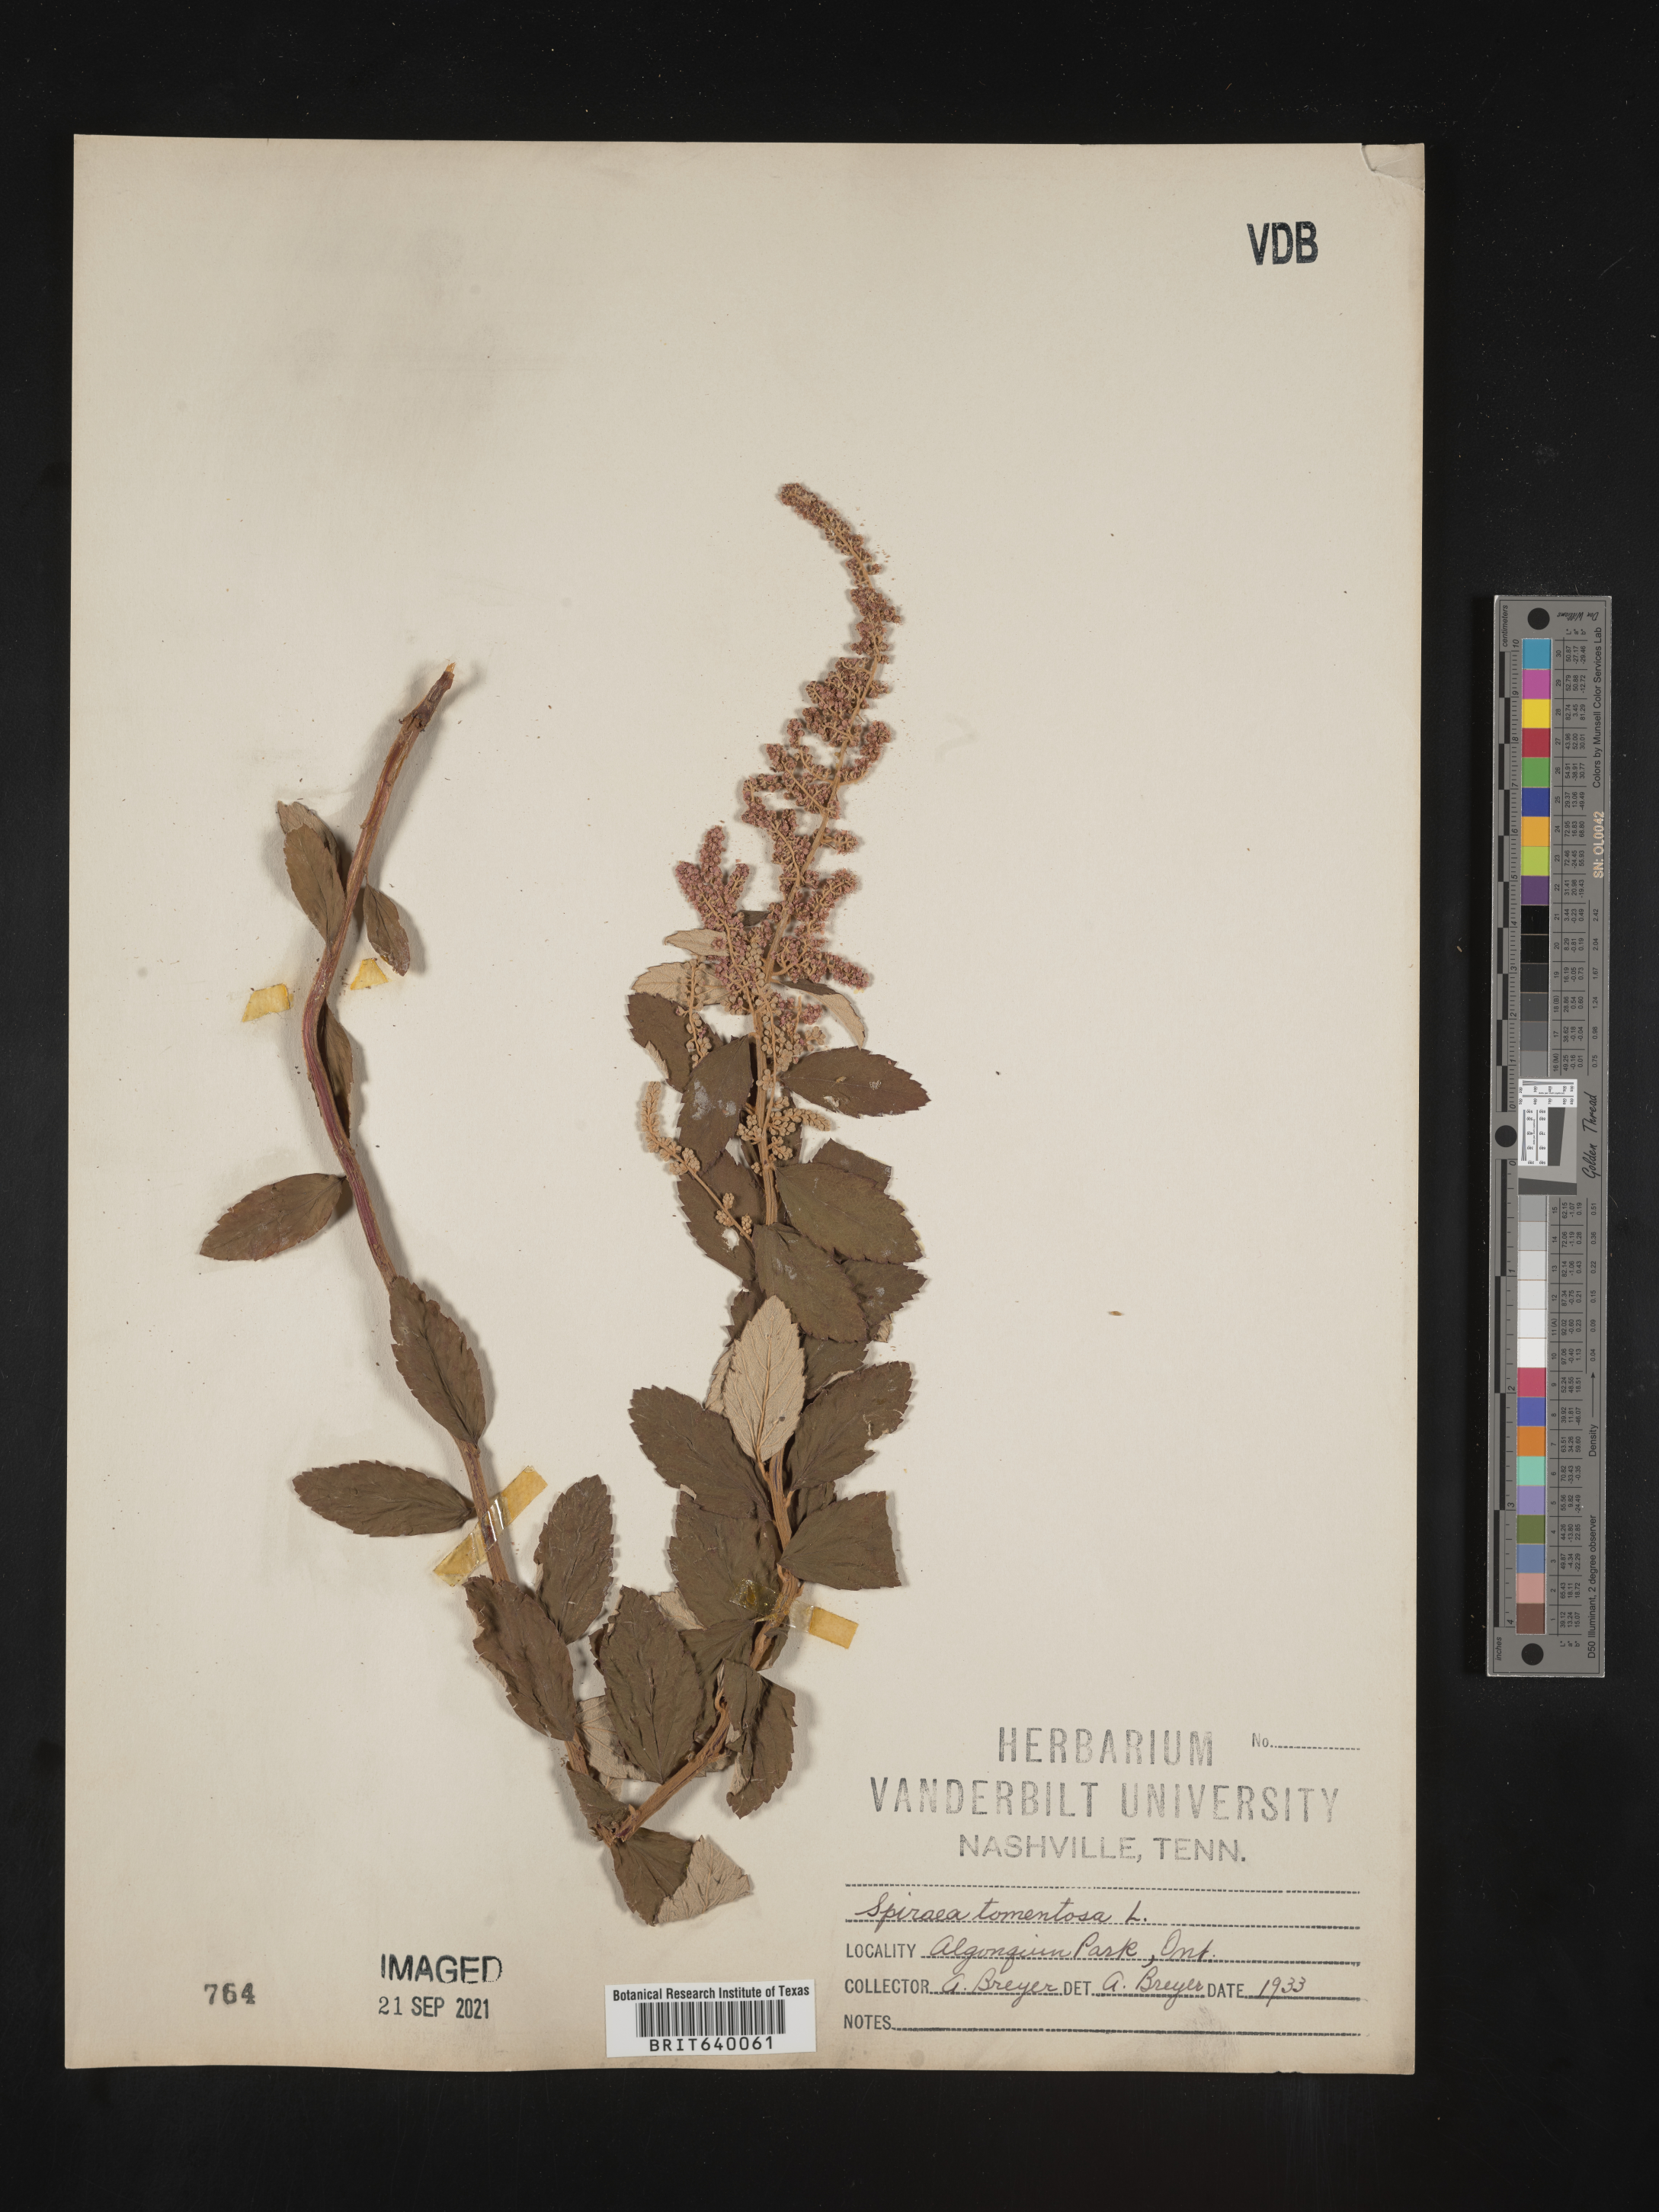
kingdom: Plantae
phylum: Tracheophyta
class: Magnoliopsida
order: Rosales
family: Rosaceae
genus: Spiraea
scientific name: Spiraea
